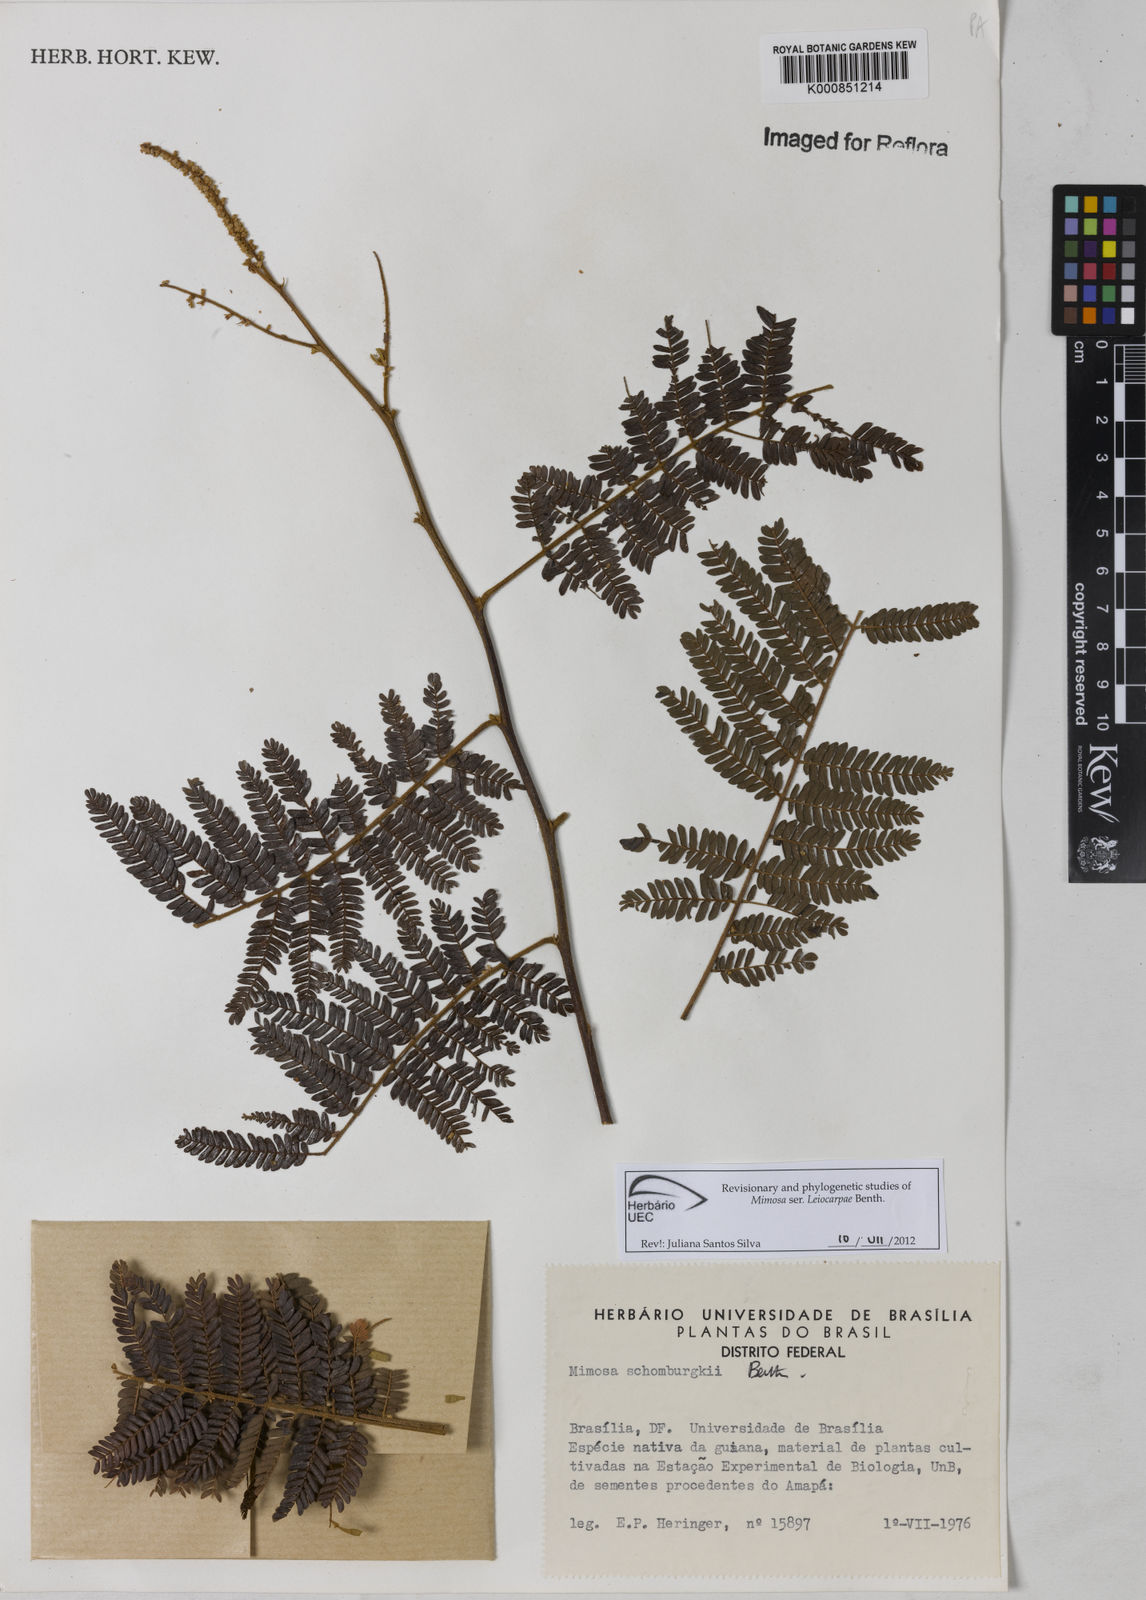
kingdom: Plantae
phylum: Tracheophyta
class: Magnoliopsida
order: Fabales
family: Fabaceae
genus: Mimosa
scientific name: Mimosa schomburgkii
